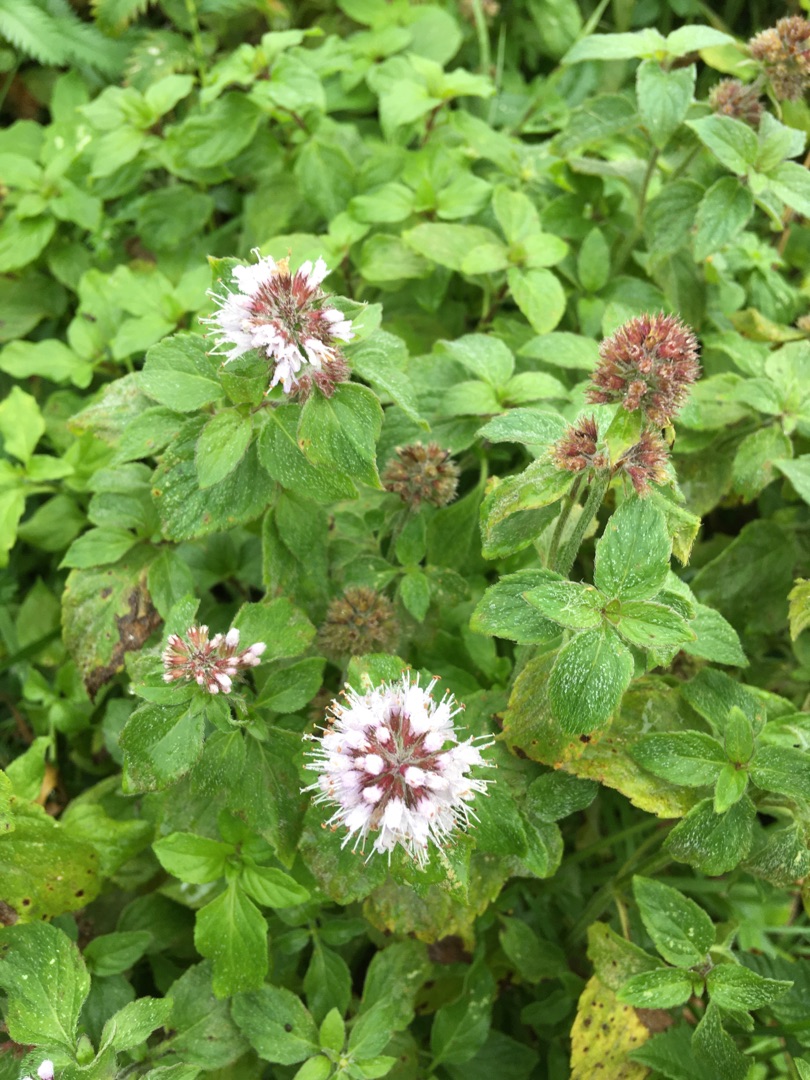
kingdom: Plantae
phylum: Tracheophyta
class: Magnoliopsida
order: Lamiales
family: Lamiaceae
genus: Mentha
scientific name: Mentha aquatica
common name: Vand-mynte
